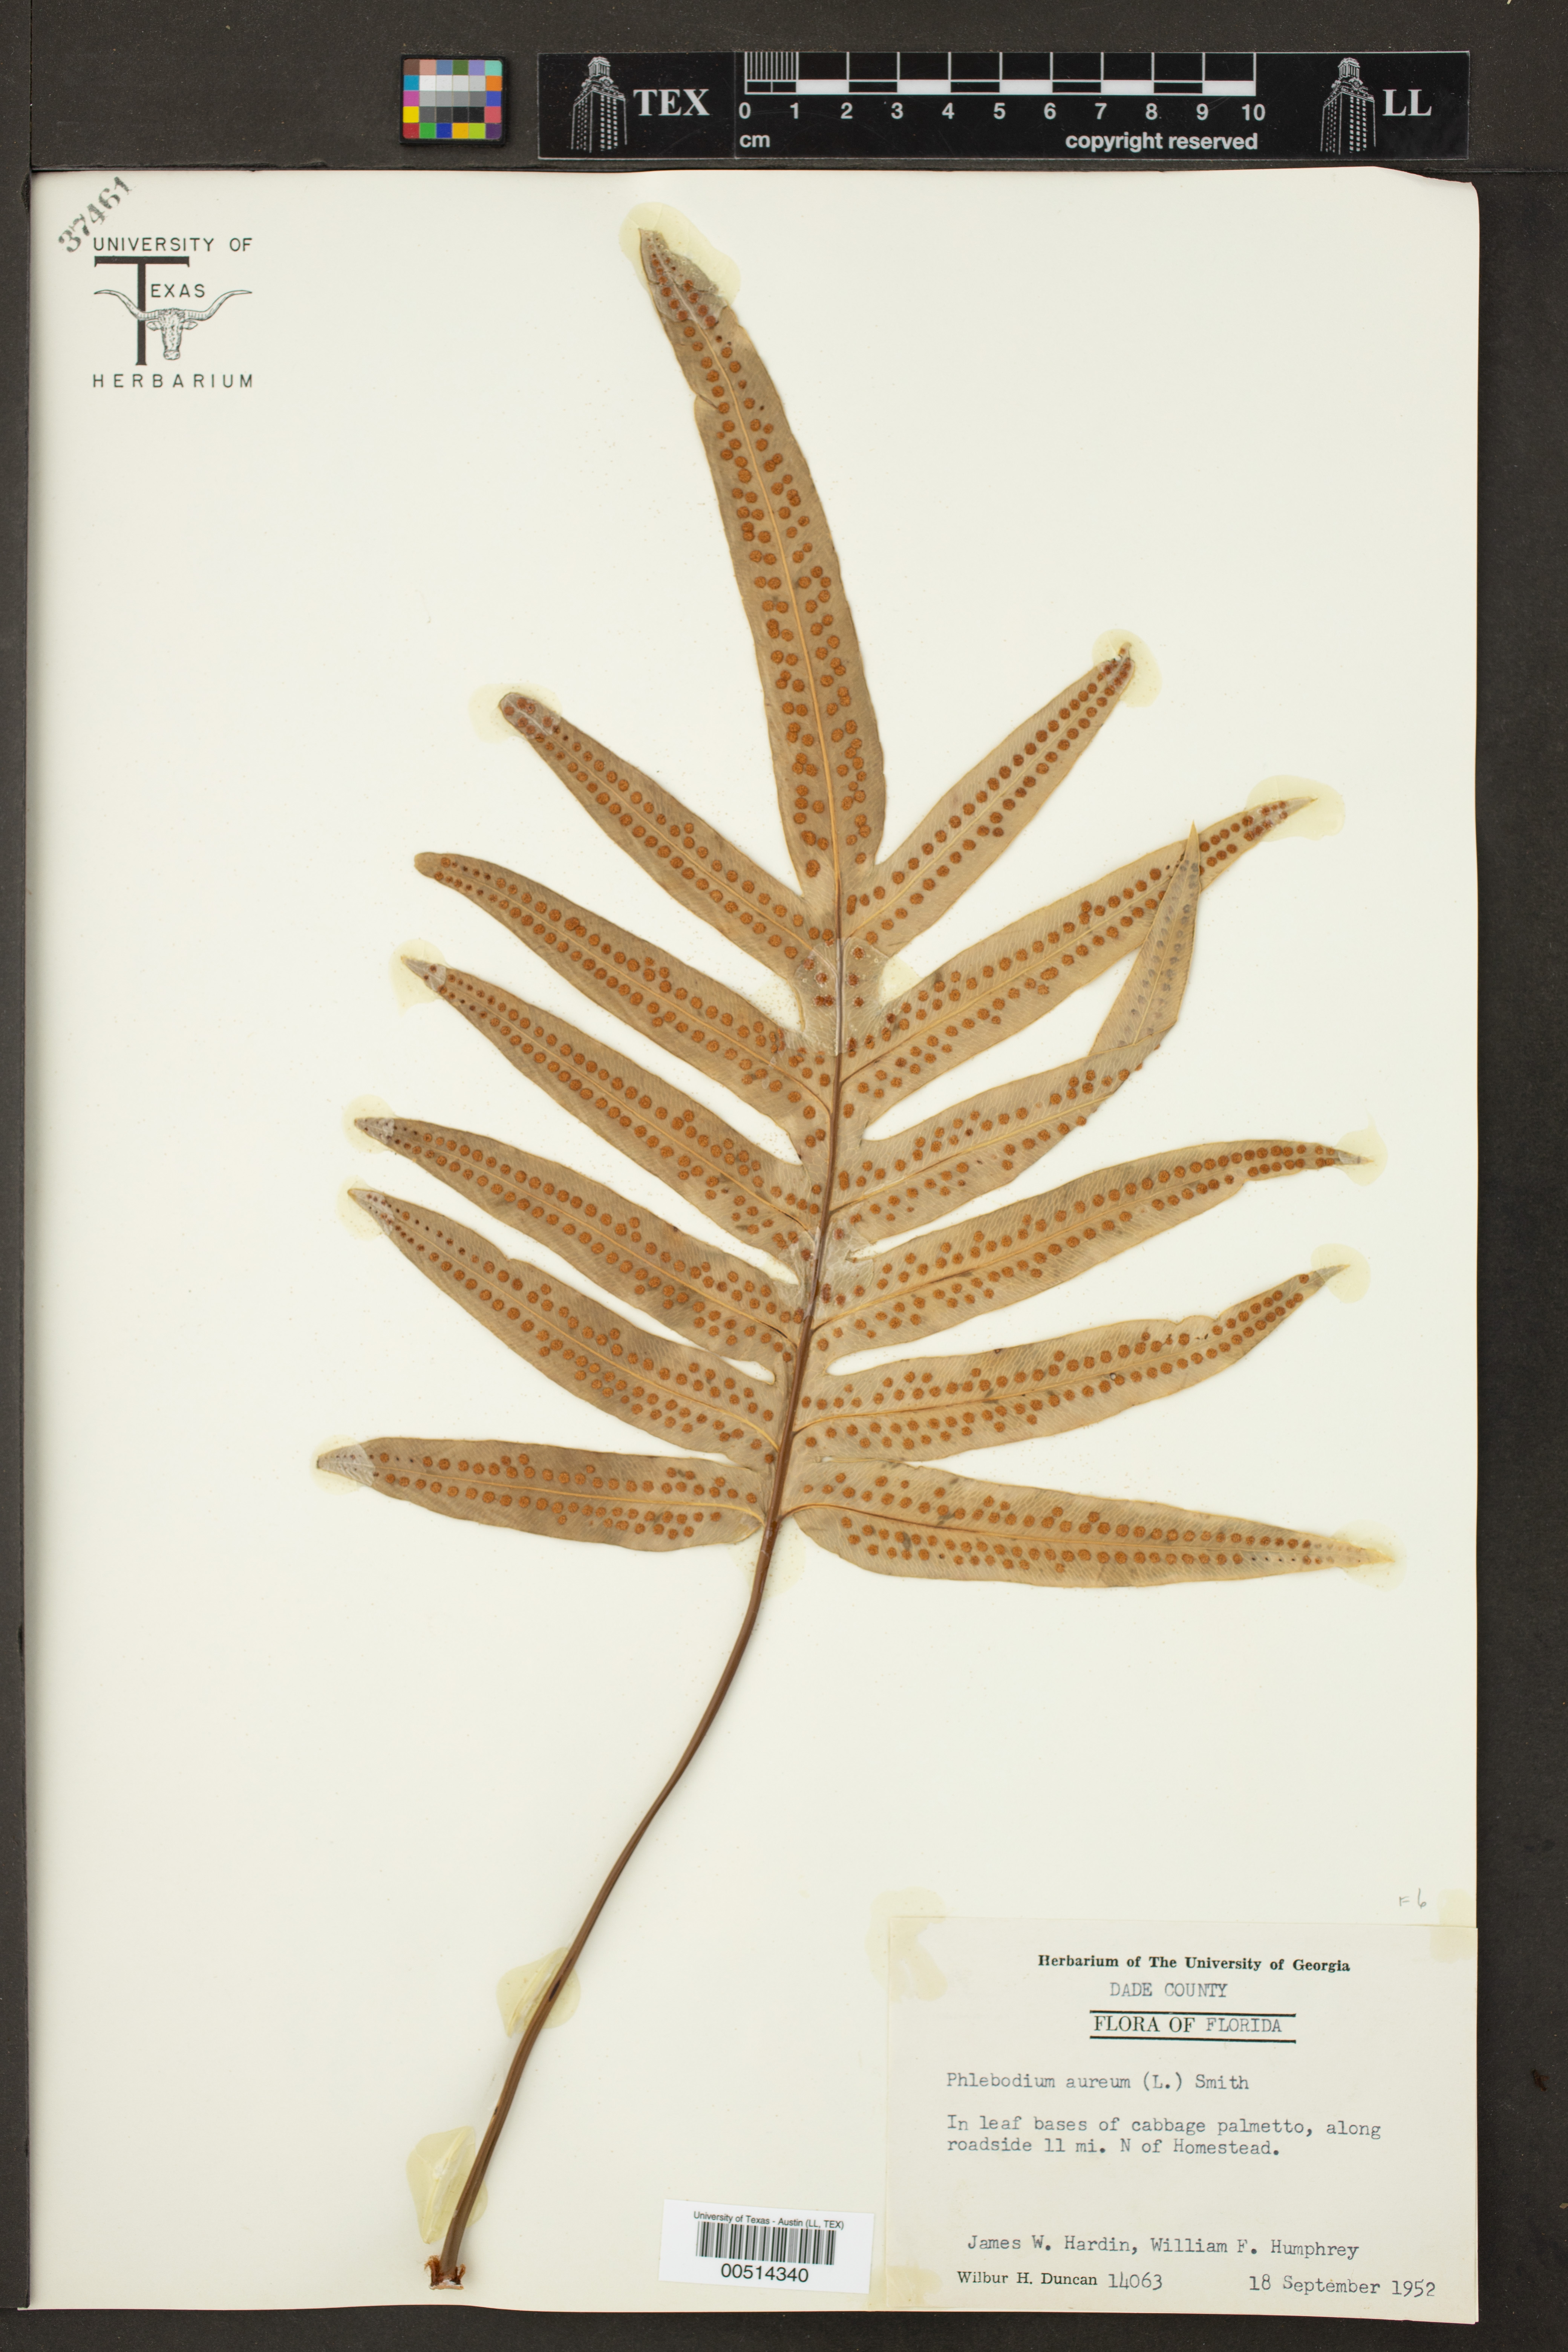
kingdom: Plantae
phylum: Tracheophyta
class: Polypodiopsida
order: Polypodiales
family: Polypodiaceae
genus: Phlebodium
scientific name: Phlebodium aureum
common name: Gold-foot fern
